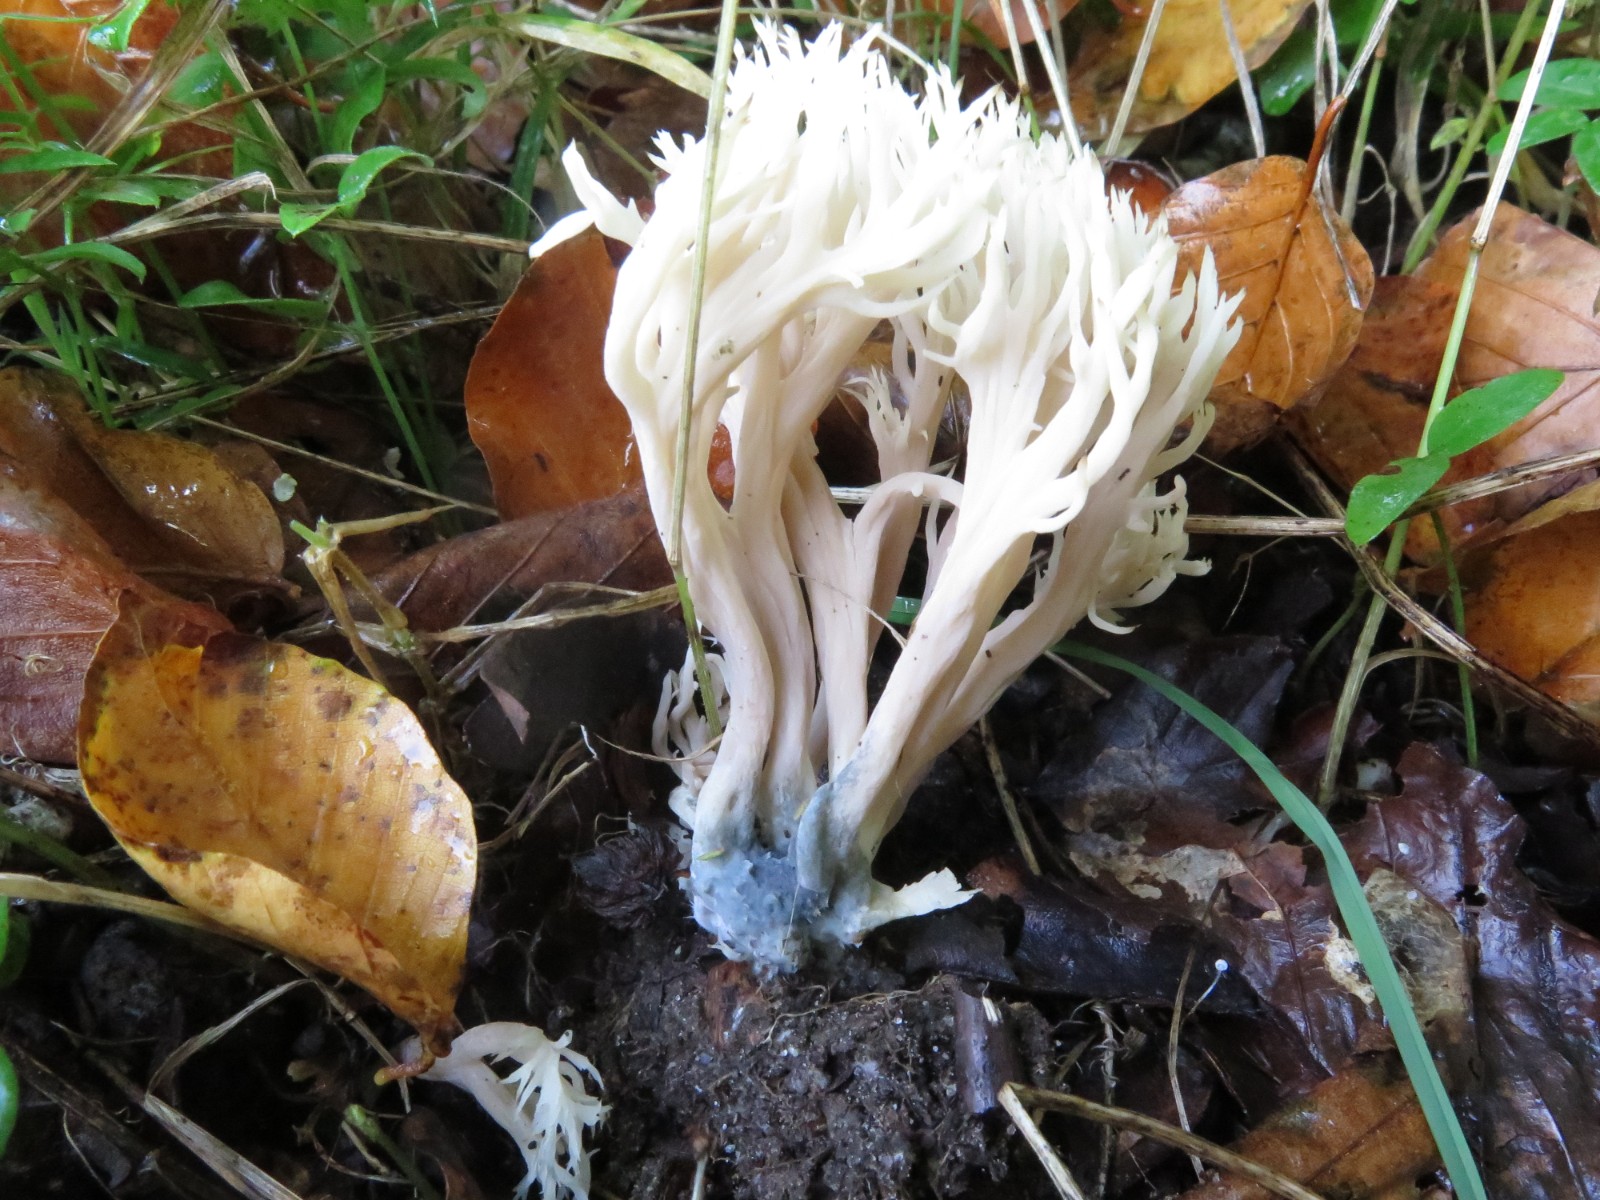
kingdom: Fungi
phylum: Ascomycota
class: Sordariomycetes
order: Sordariales
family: Helminthosphaeriaceae
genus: Helminthosphaeria
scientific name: Helminthosphaeria clavariarum
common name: trold-svampesnyltekerne
